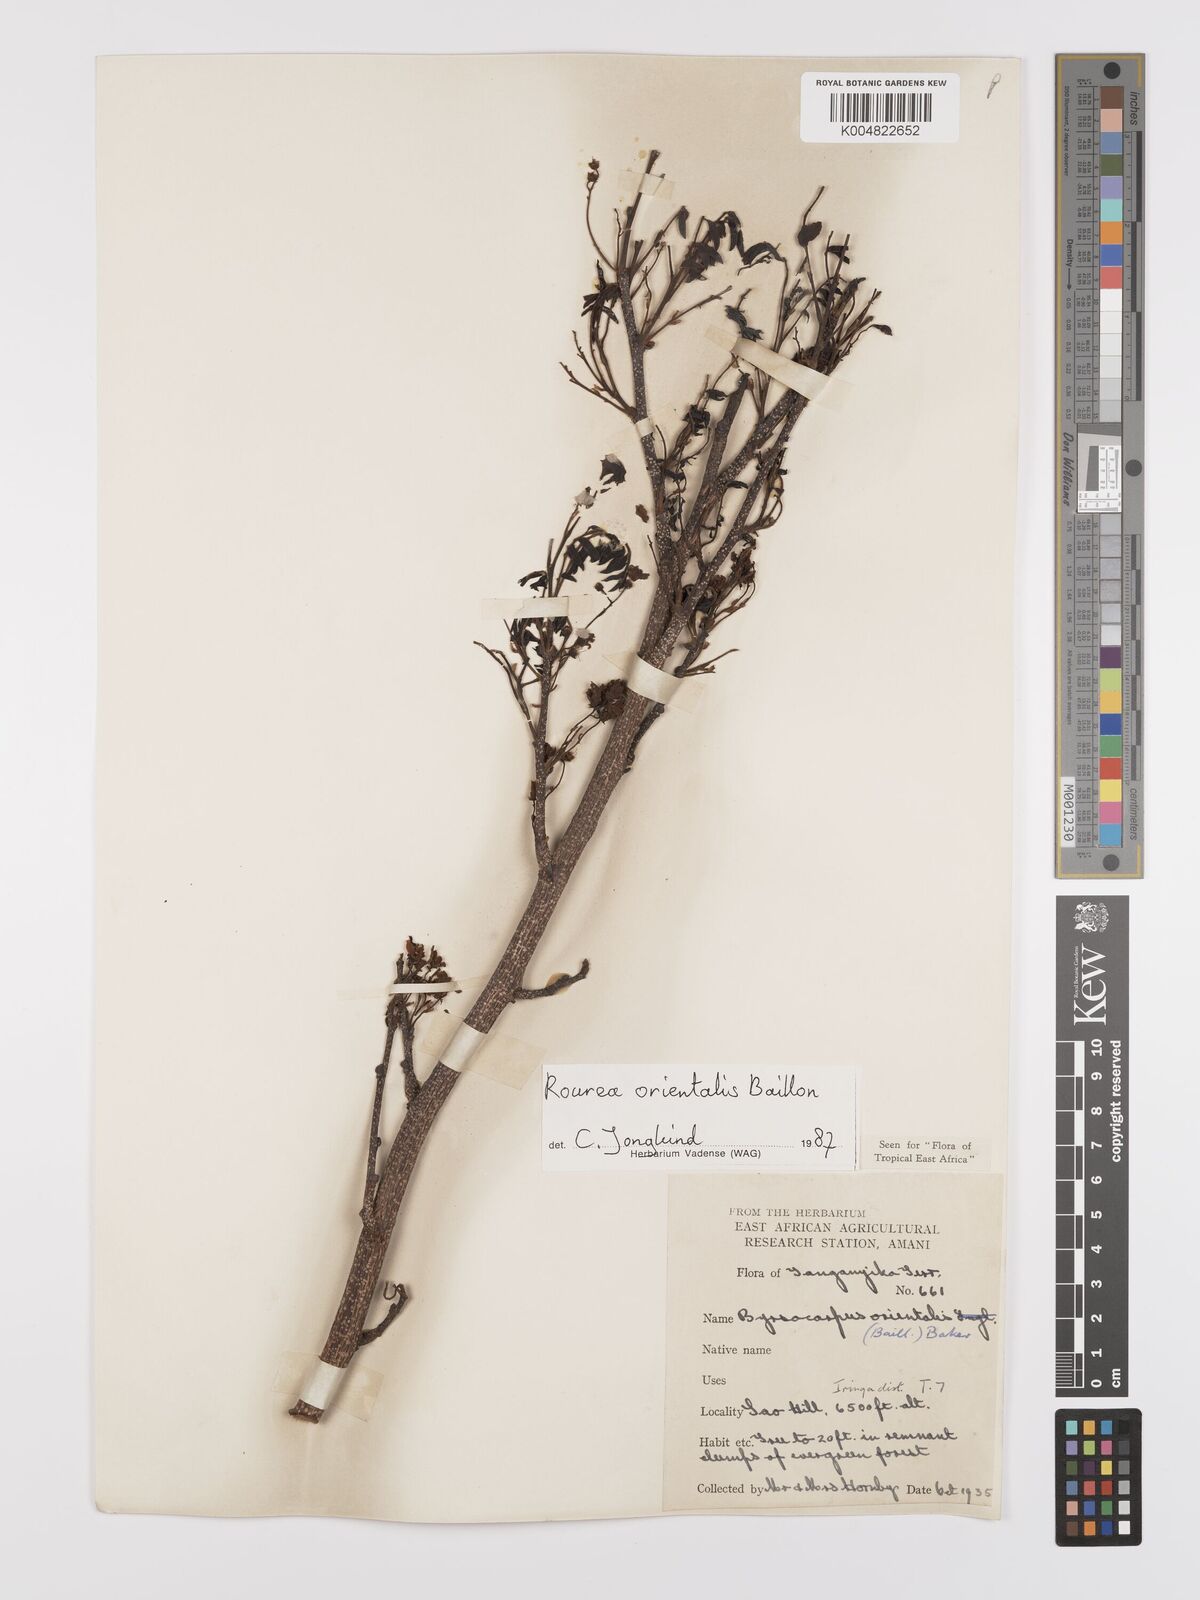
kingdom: Plantae
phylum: Tracheophyta
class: Magnoliopsida
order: Oxalidales
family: Connaraceae
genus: Rourea
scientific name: Rourea orientalis
